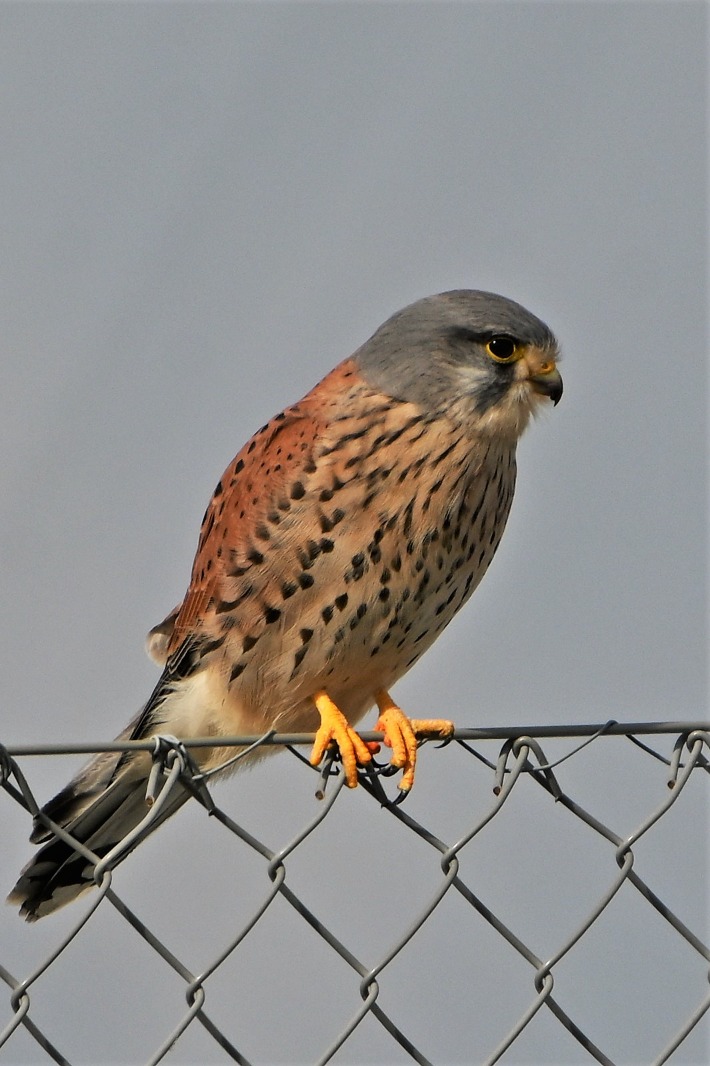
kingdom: Animalia
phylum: Chordata
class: Aves
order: Falconiformes
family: Falconidae
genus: Falco
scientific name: Falco tinnunculus
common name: Tårnfalk
